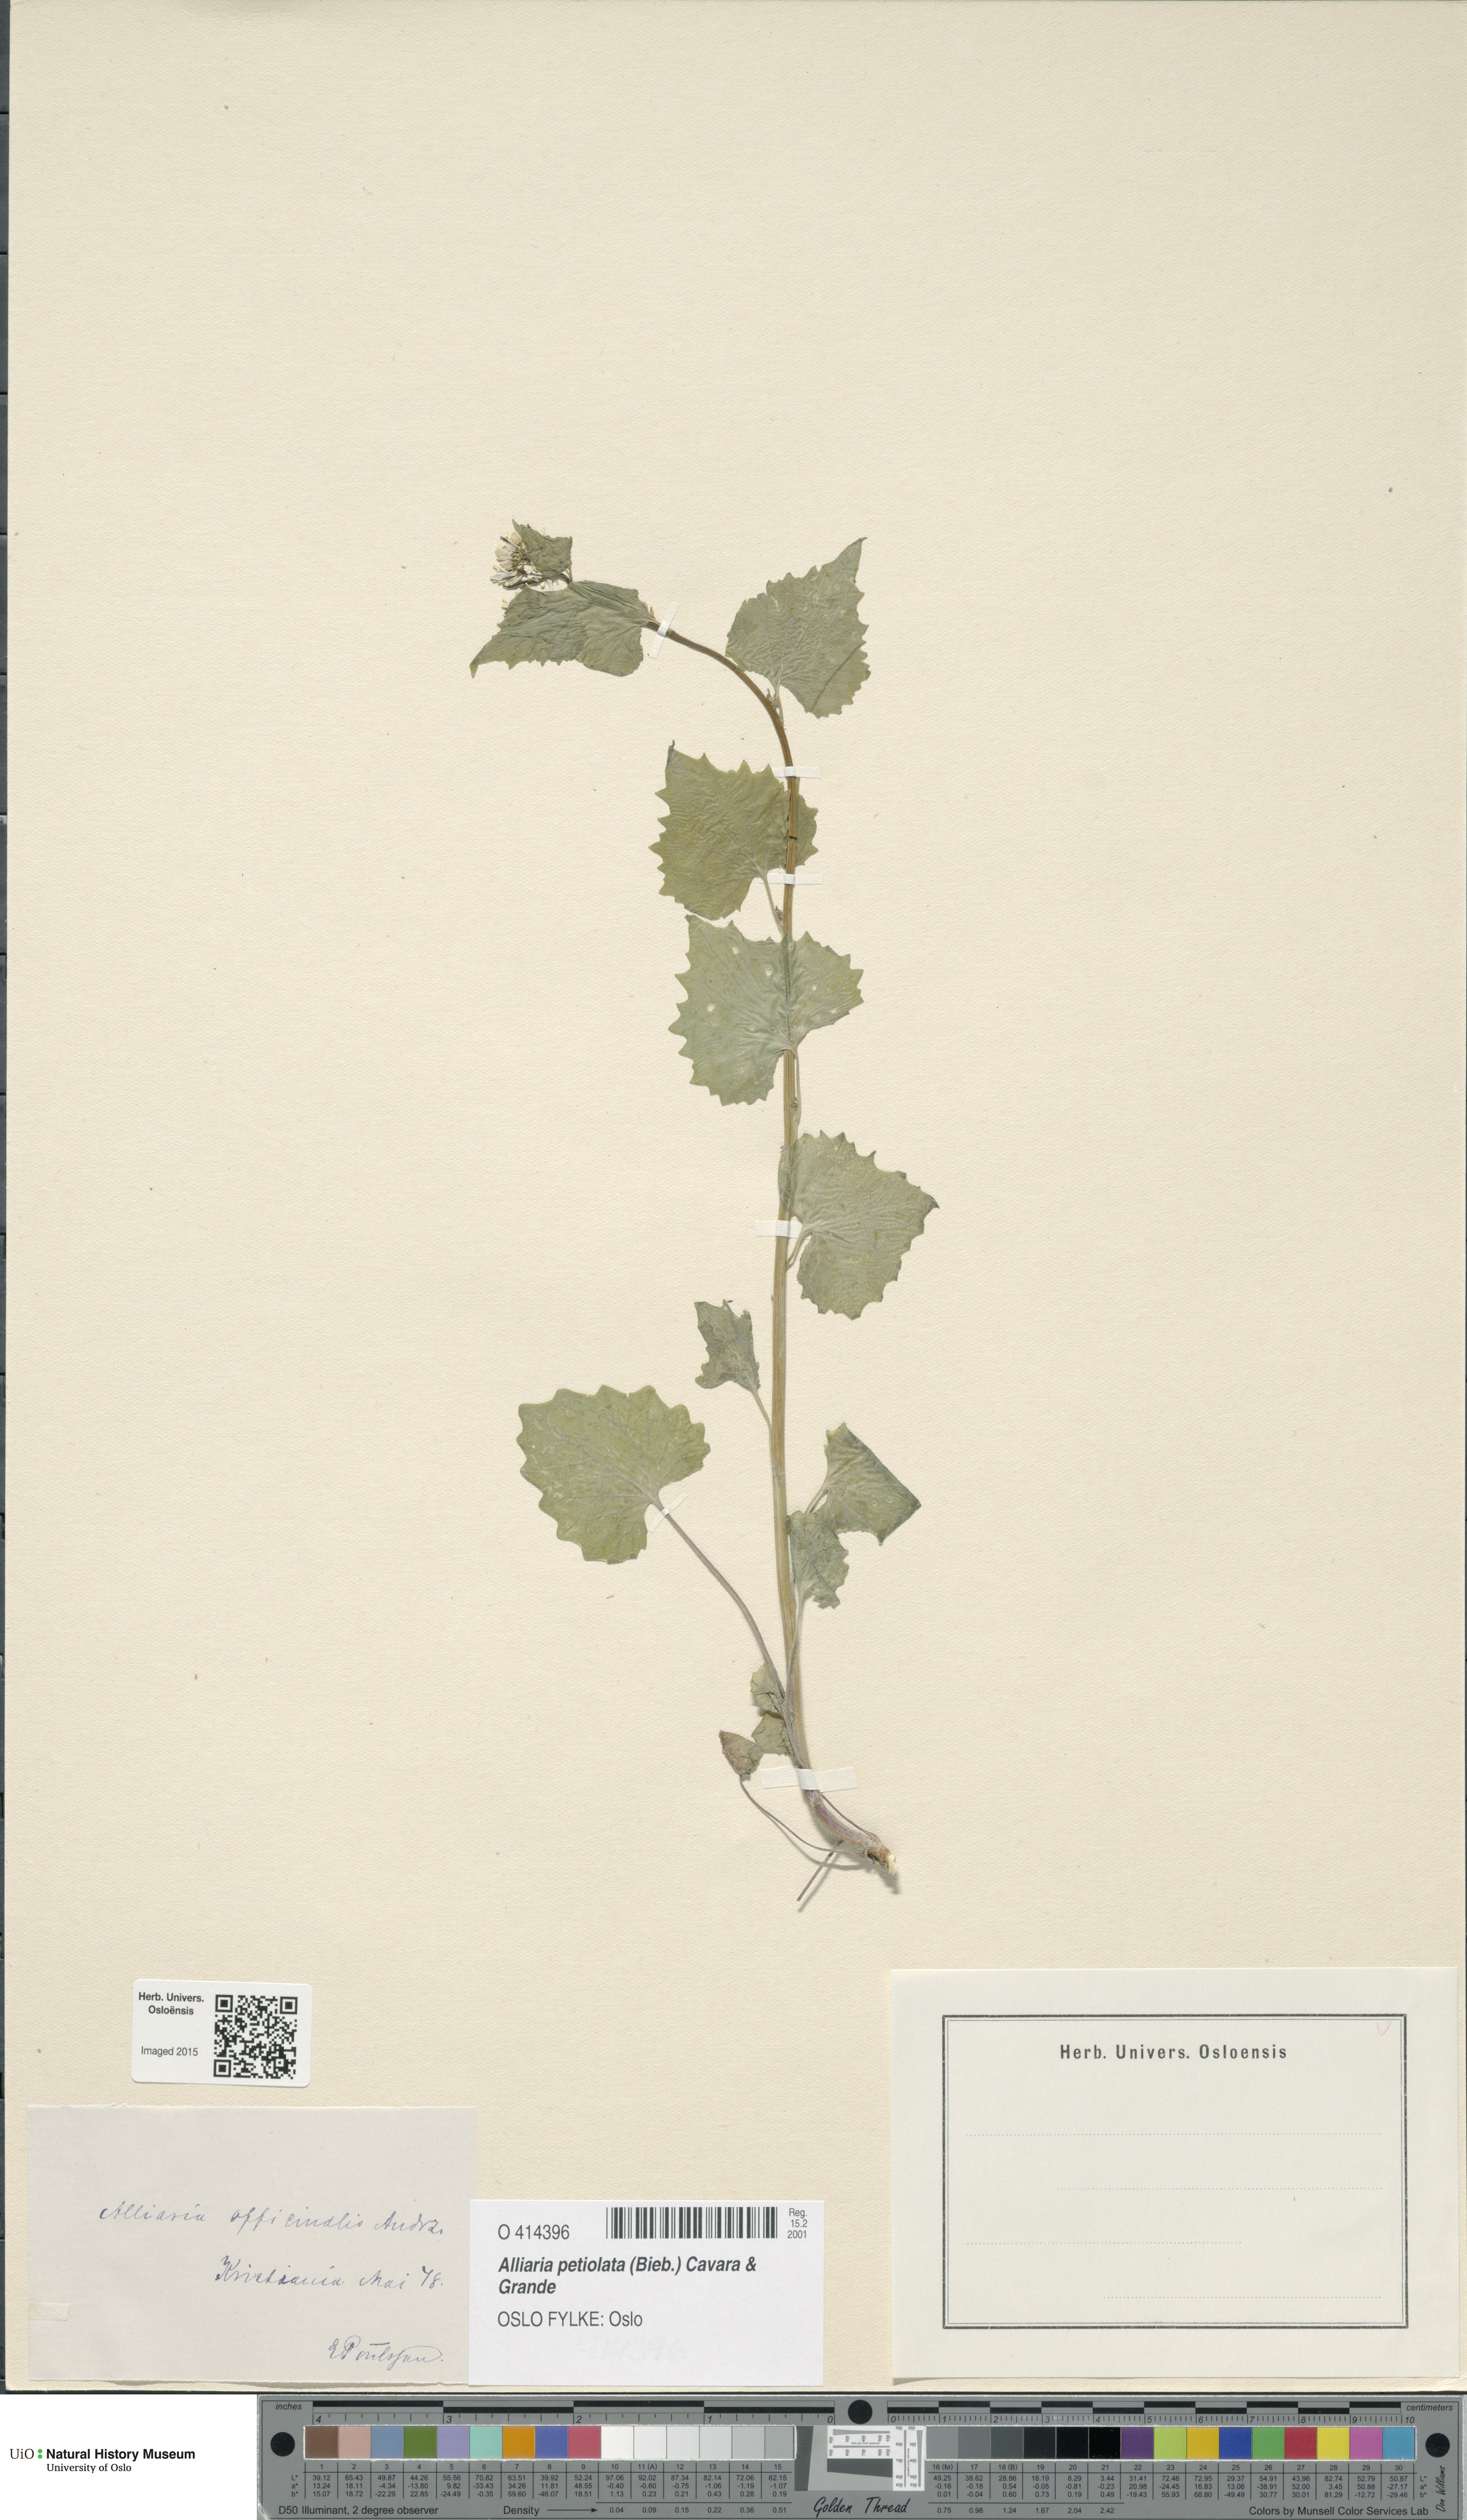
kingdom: Plantae
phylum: Tracheophyta
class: Magnoliopsida
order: Brassicales
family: Brassicaceae
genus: Alliaria
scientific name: Alliaria petiolata
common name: Garlic mustard
